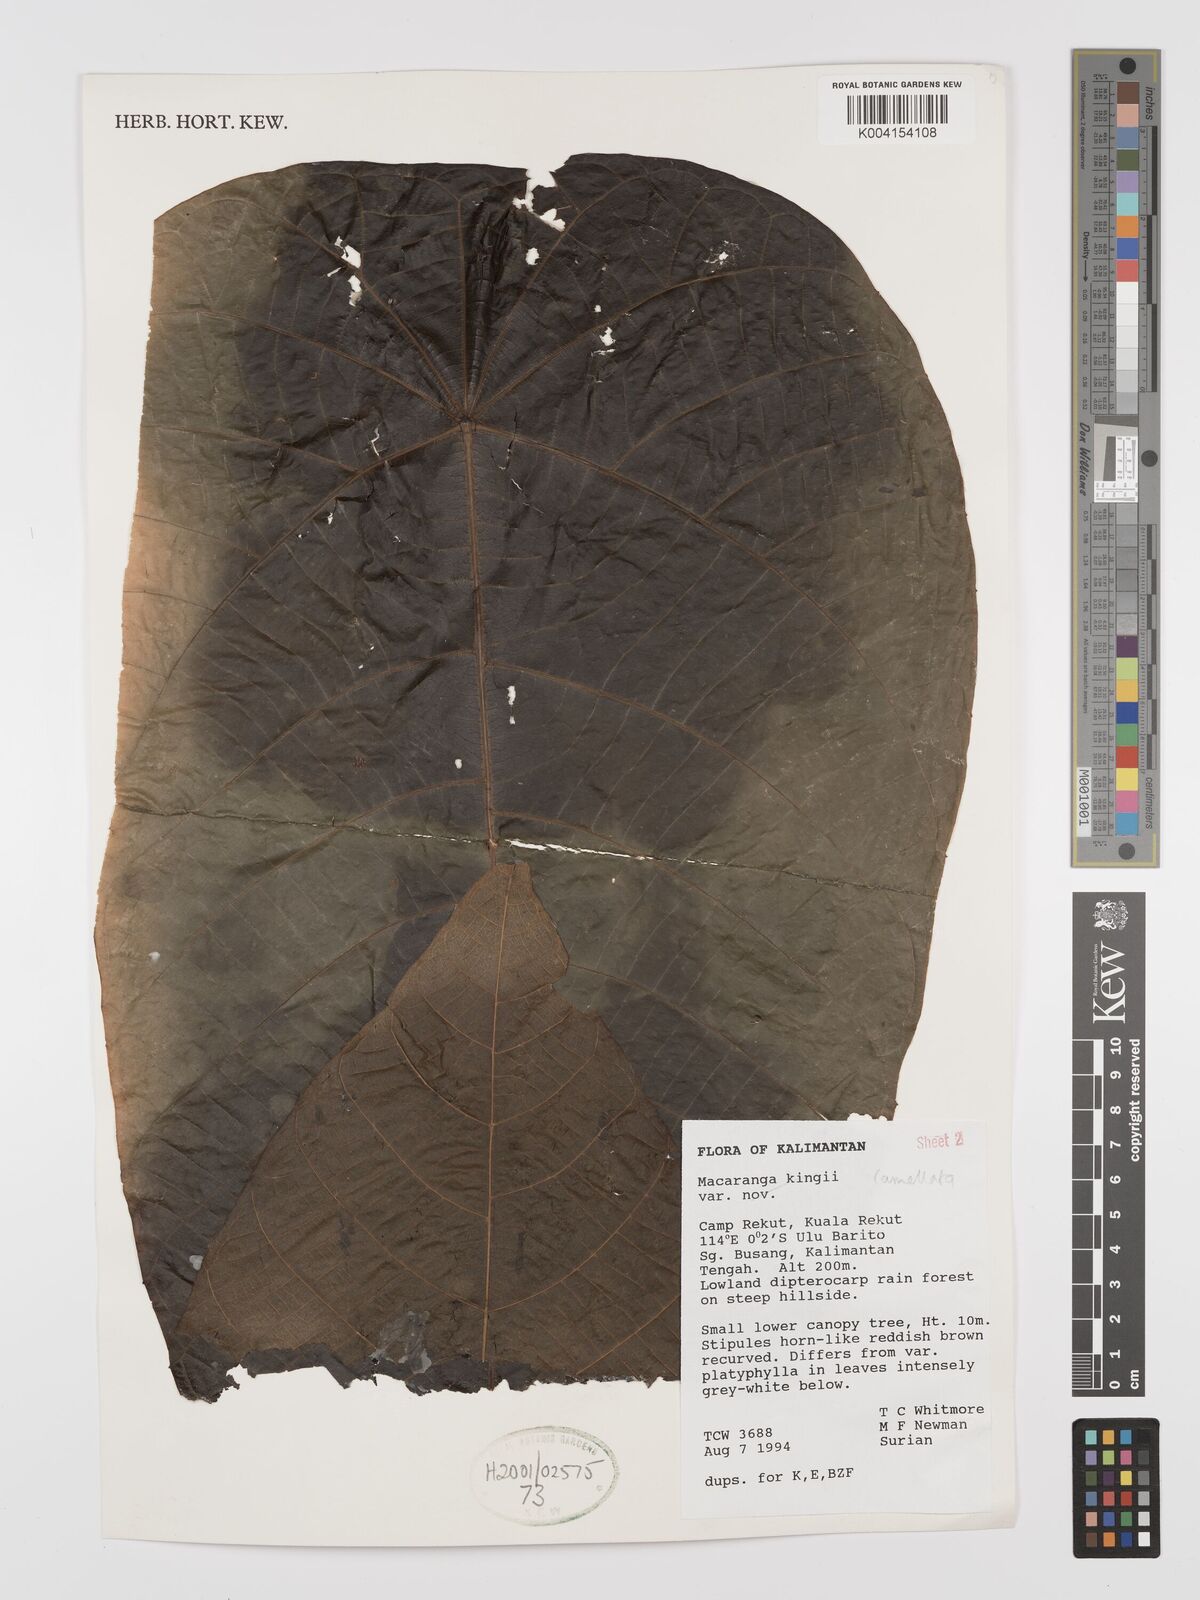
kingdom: Plantae
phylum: Tracheophyta
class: Magnoliopsida
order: Malpighiales
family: Euphorbiaceae
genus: Macaranga
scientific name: Macaranga lamellata
